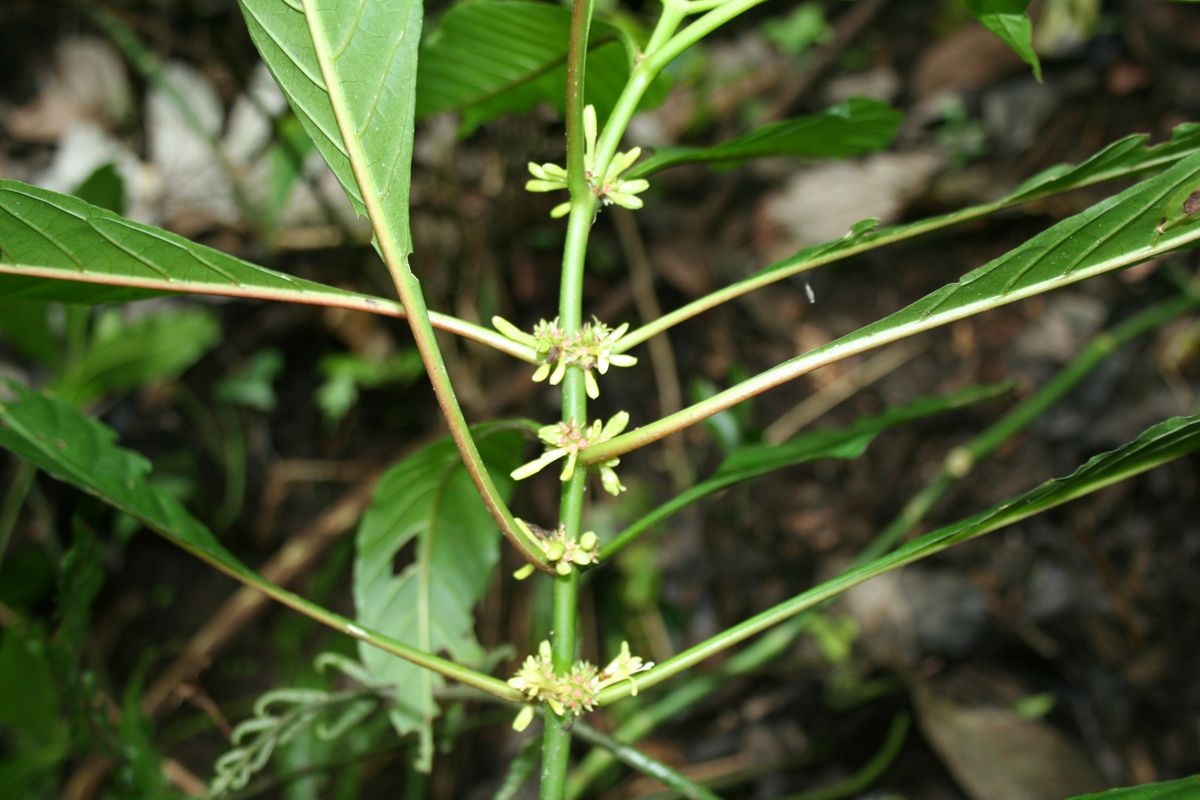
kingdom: Plantae
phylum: Tracheophyta
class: Magnoliopsida
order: Gentianales
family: Rubiaceae
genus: Hoffmannia
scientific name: Hoffmannia wilsonii
